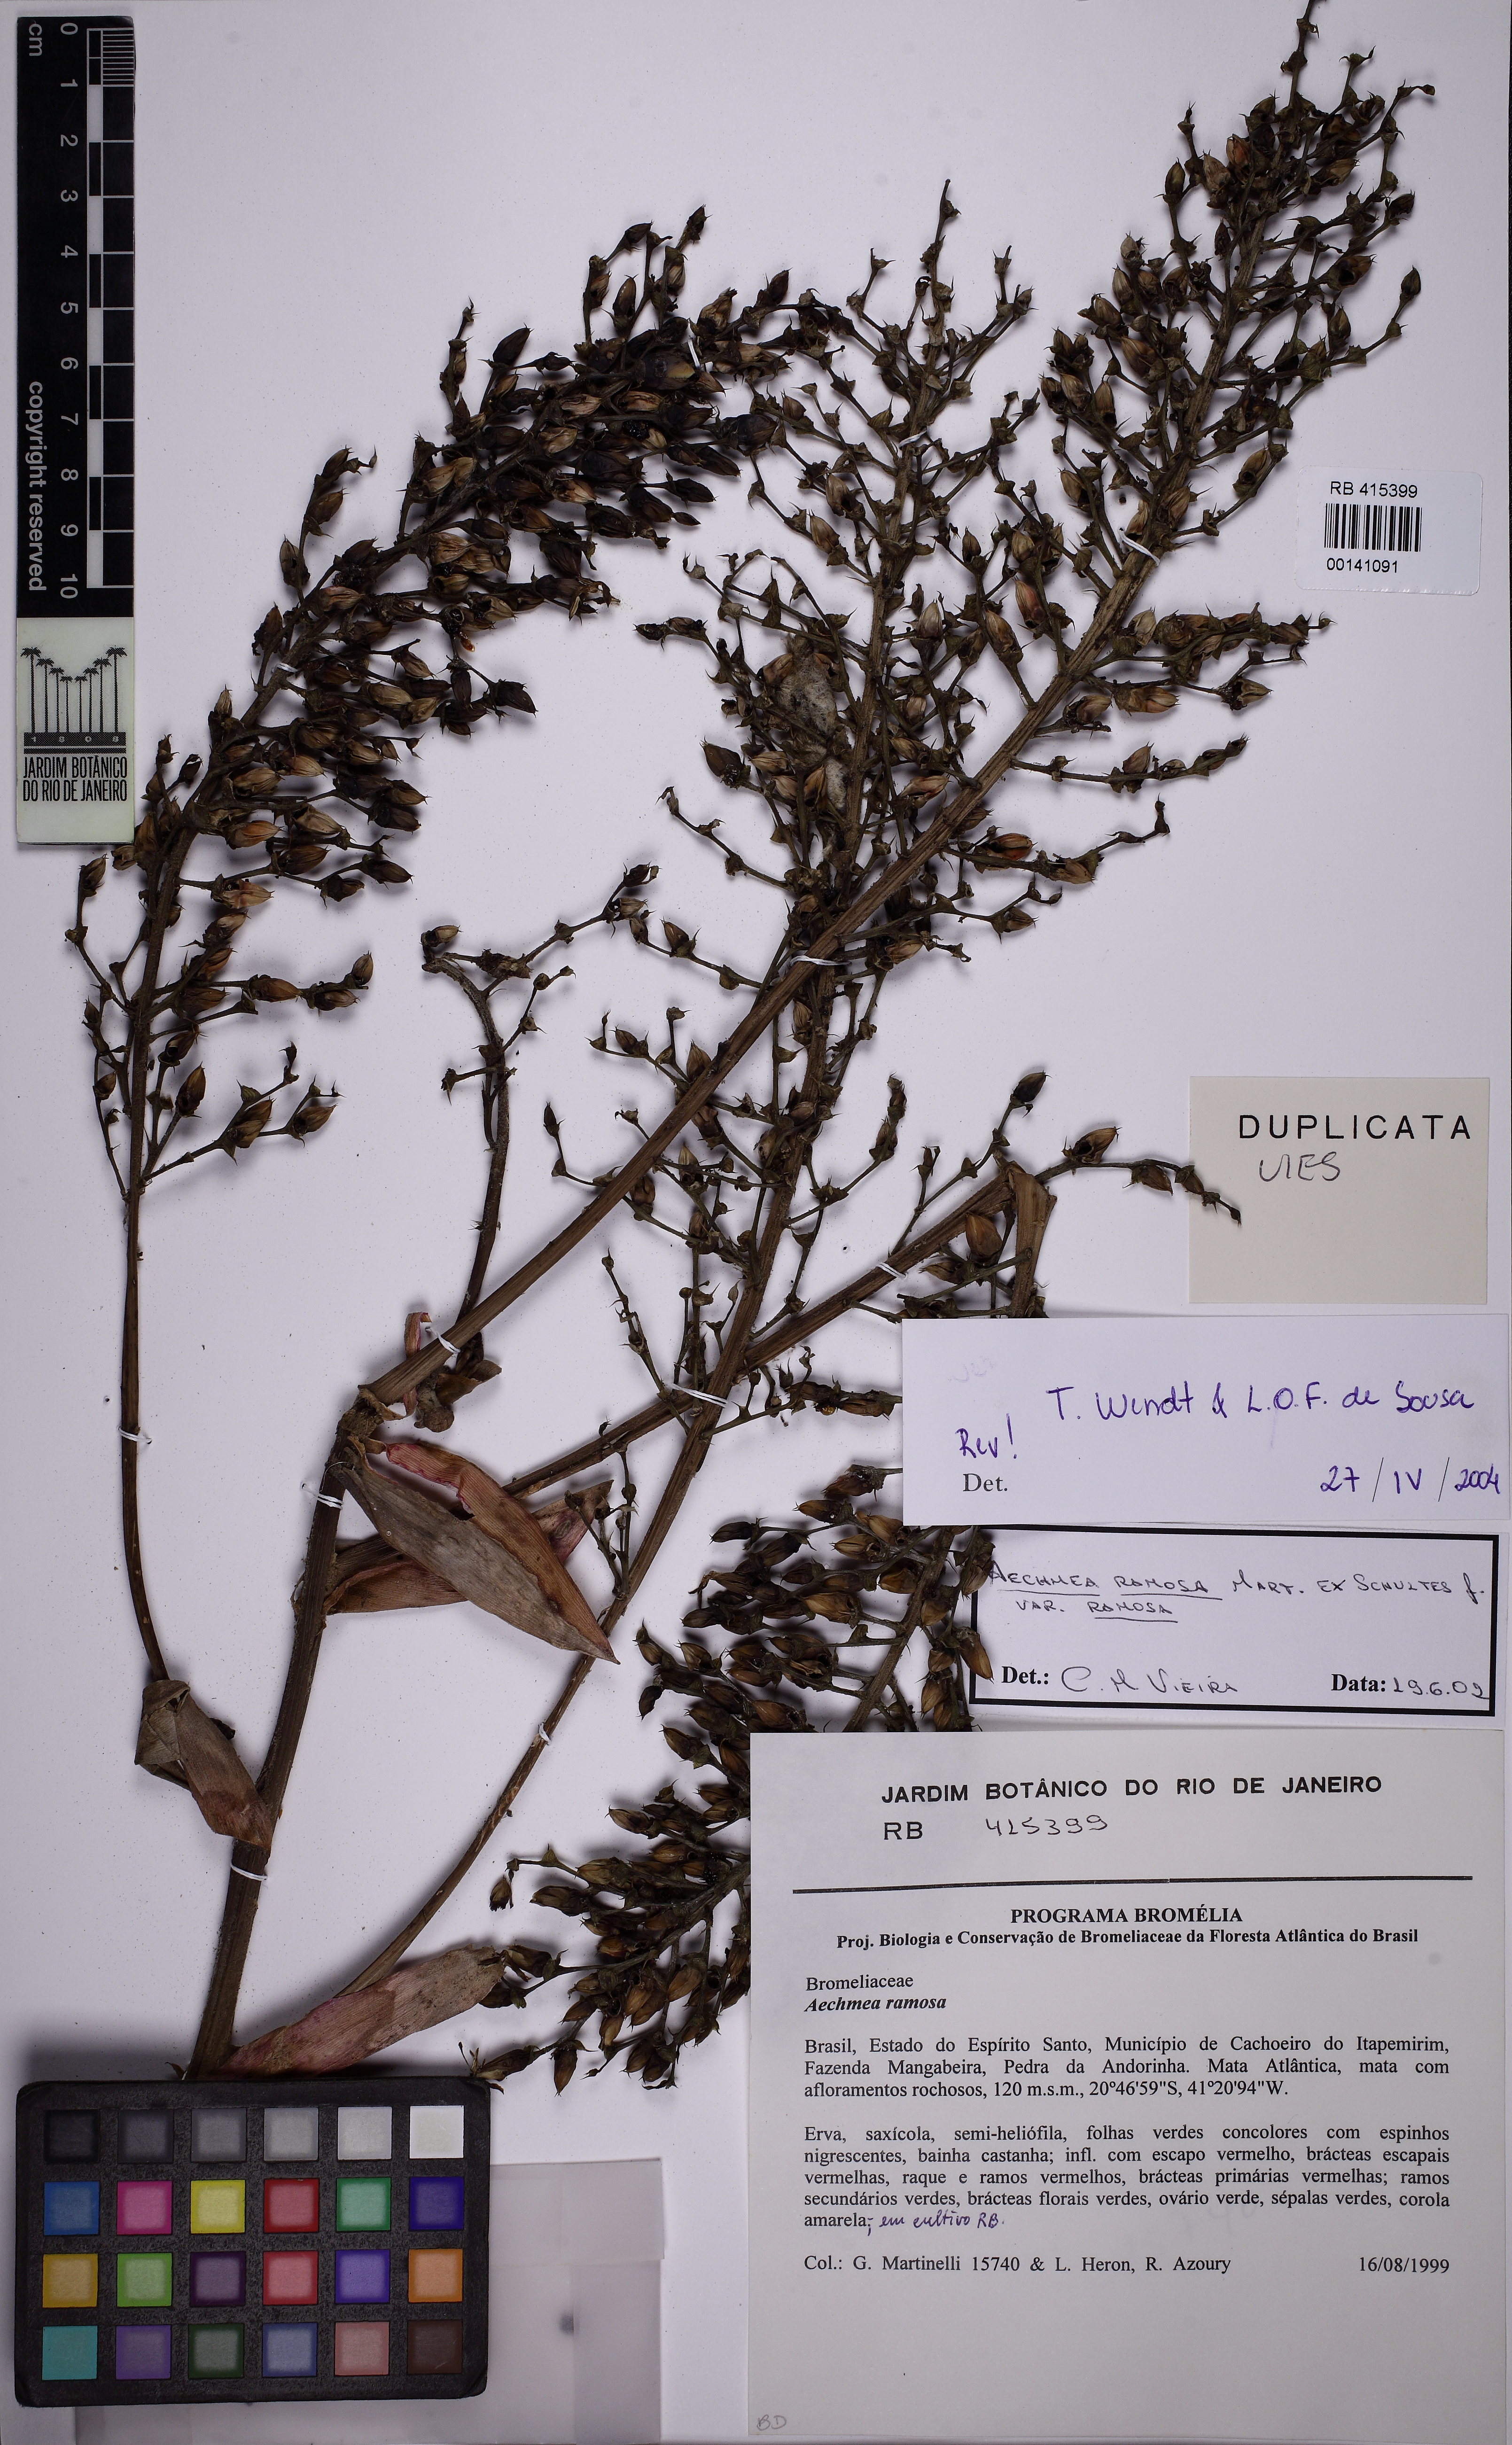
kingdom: Plantae
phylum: Tracheophyta
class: Liliopsida
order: Poales
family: Bromeliaceae
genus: Aechmea
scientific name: Aechmea ramosa
